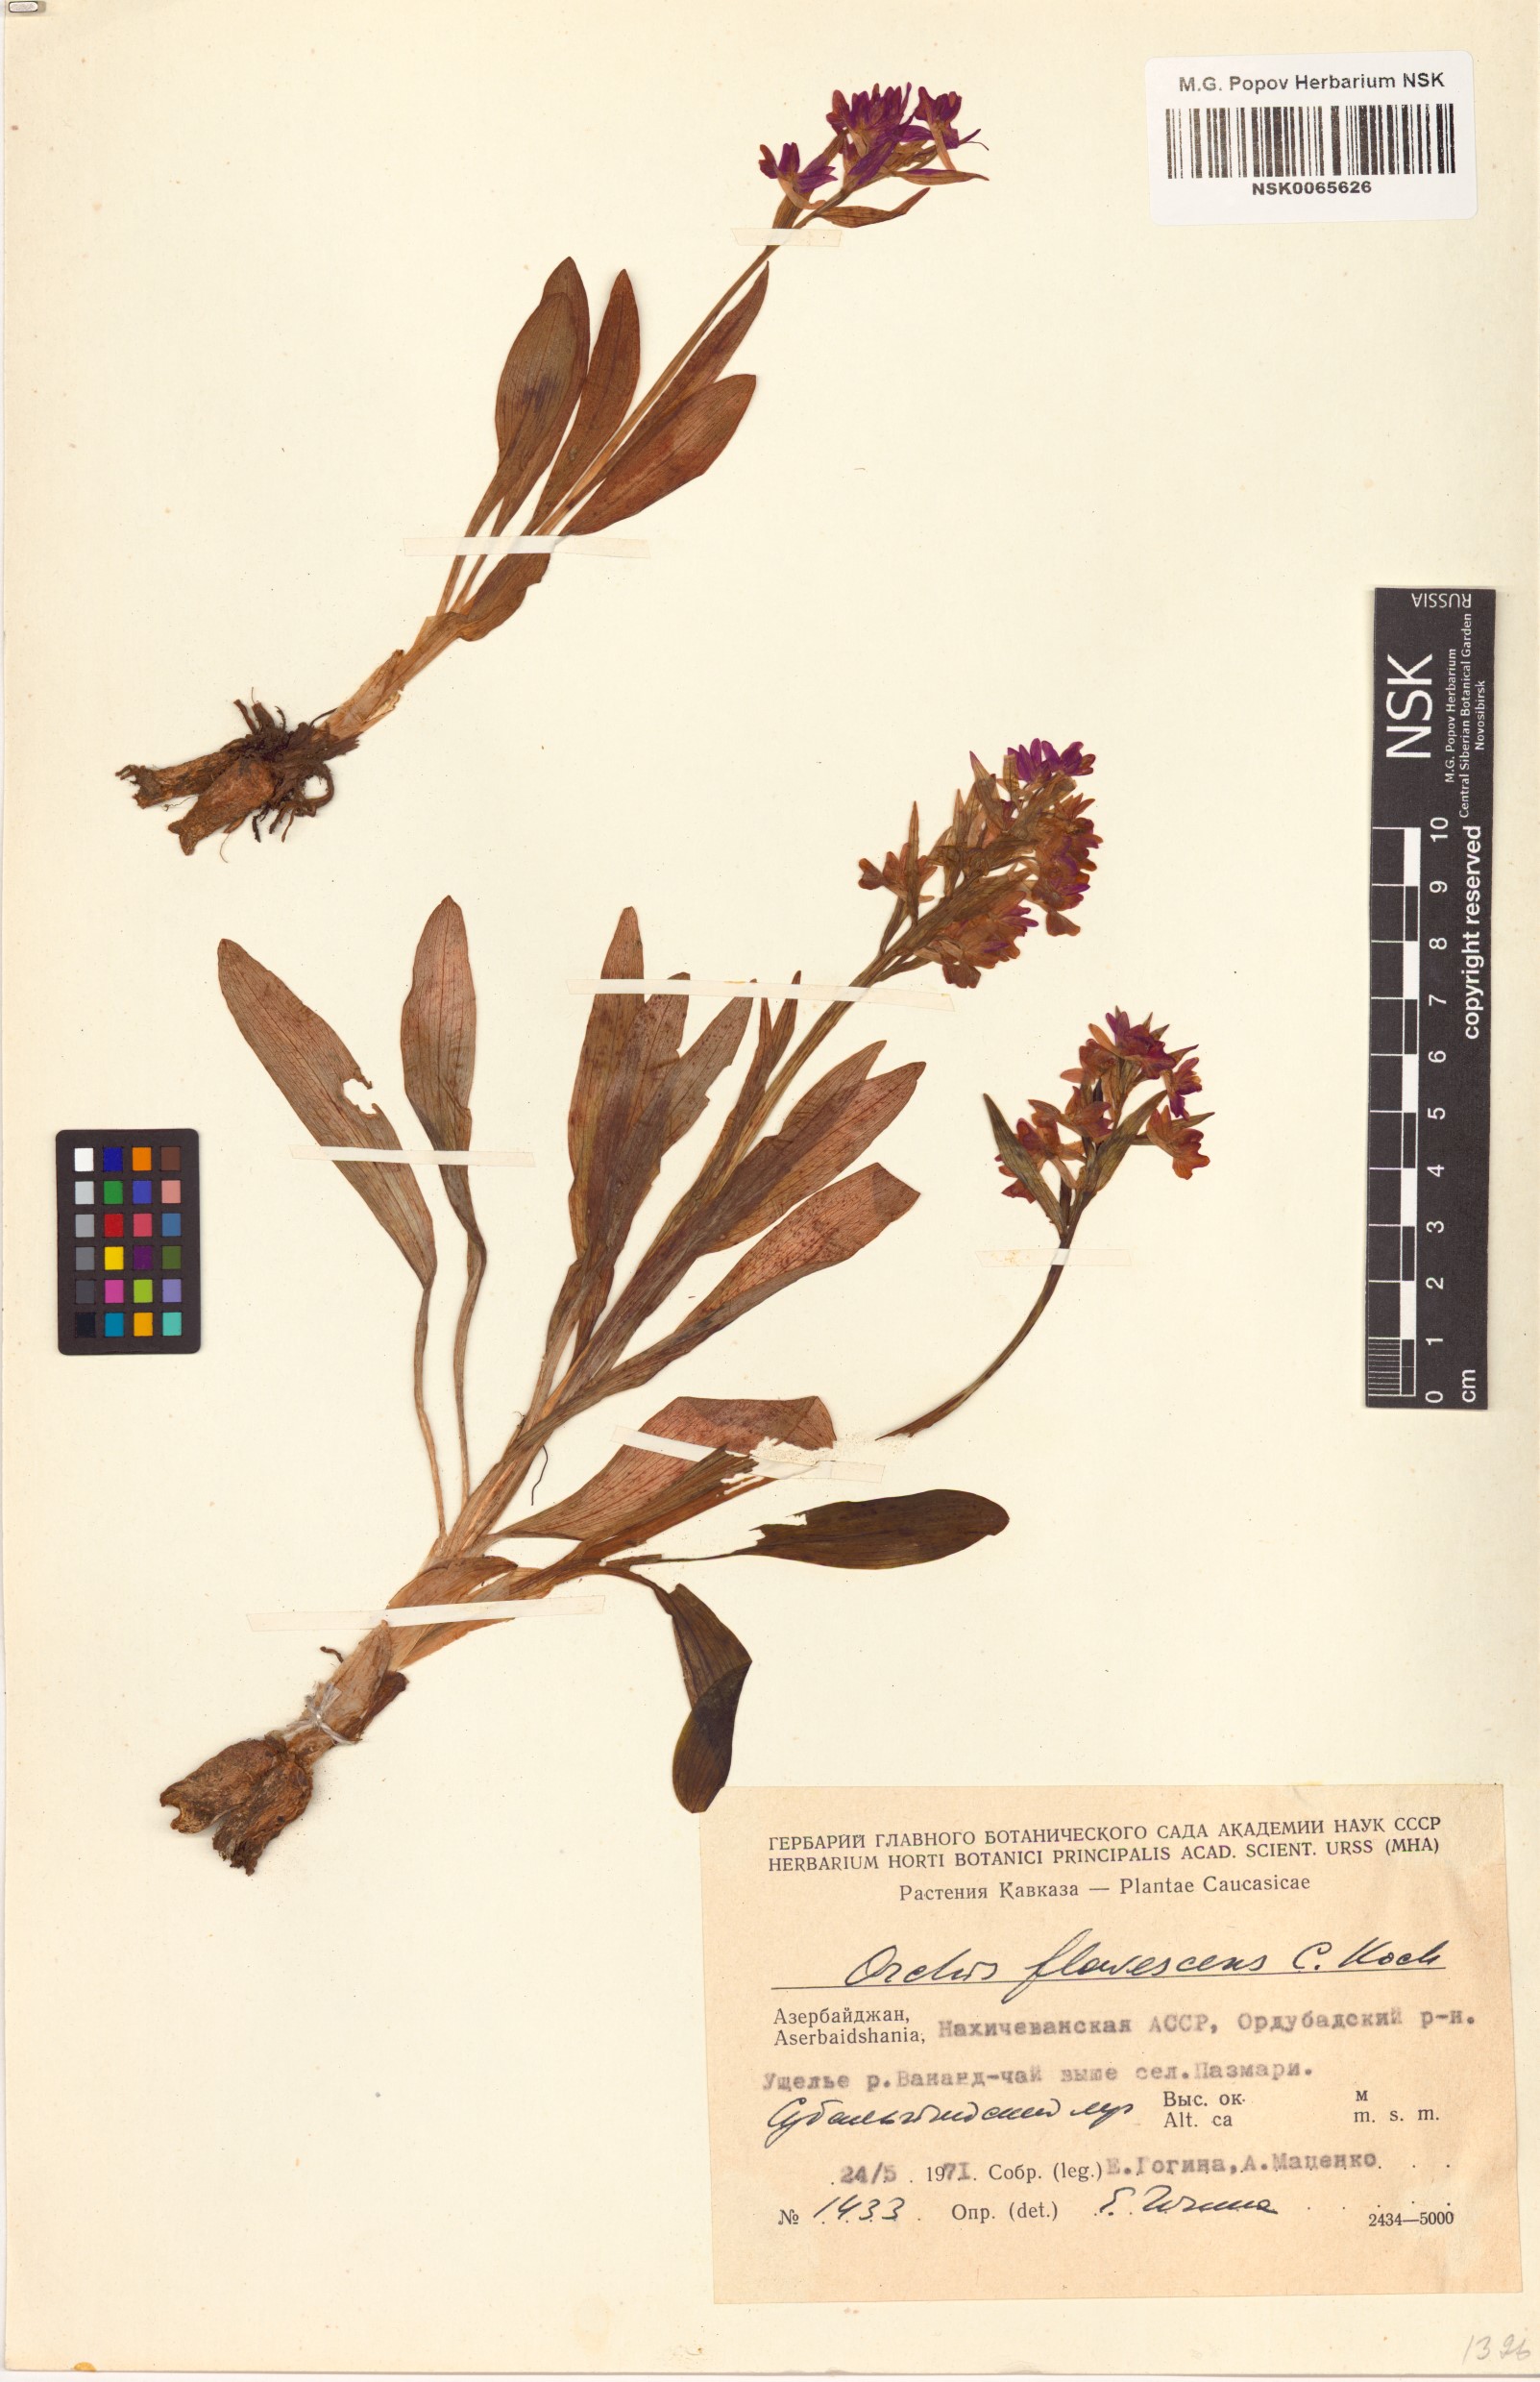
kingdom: Plantae
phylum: Tracheophyta
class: Liliopsida
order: Asparagales
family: Orchidaceae
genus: Dactylorhiza
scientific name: Dactylorhiza romana
